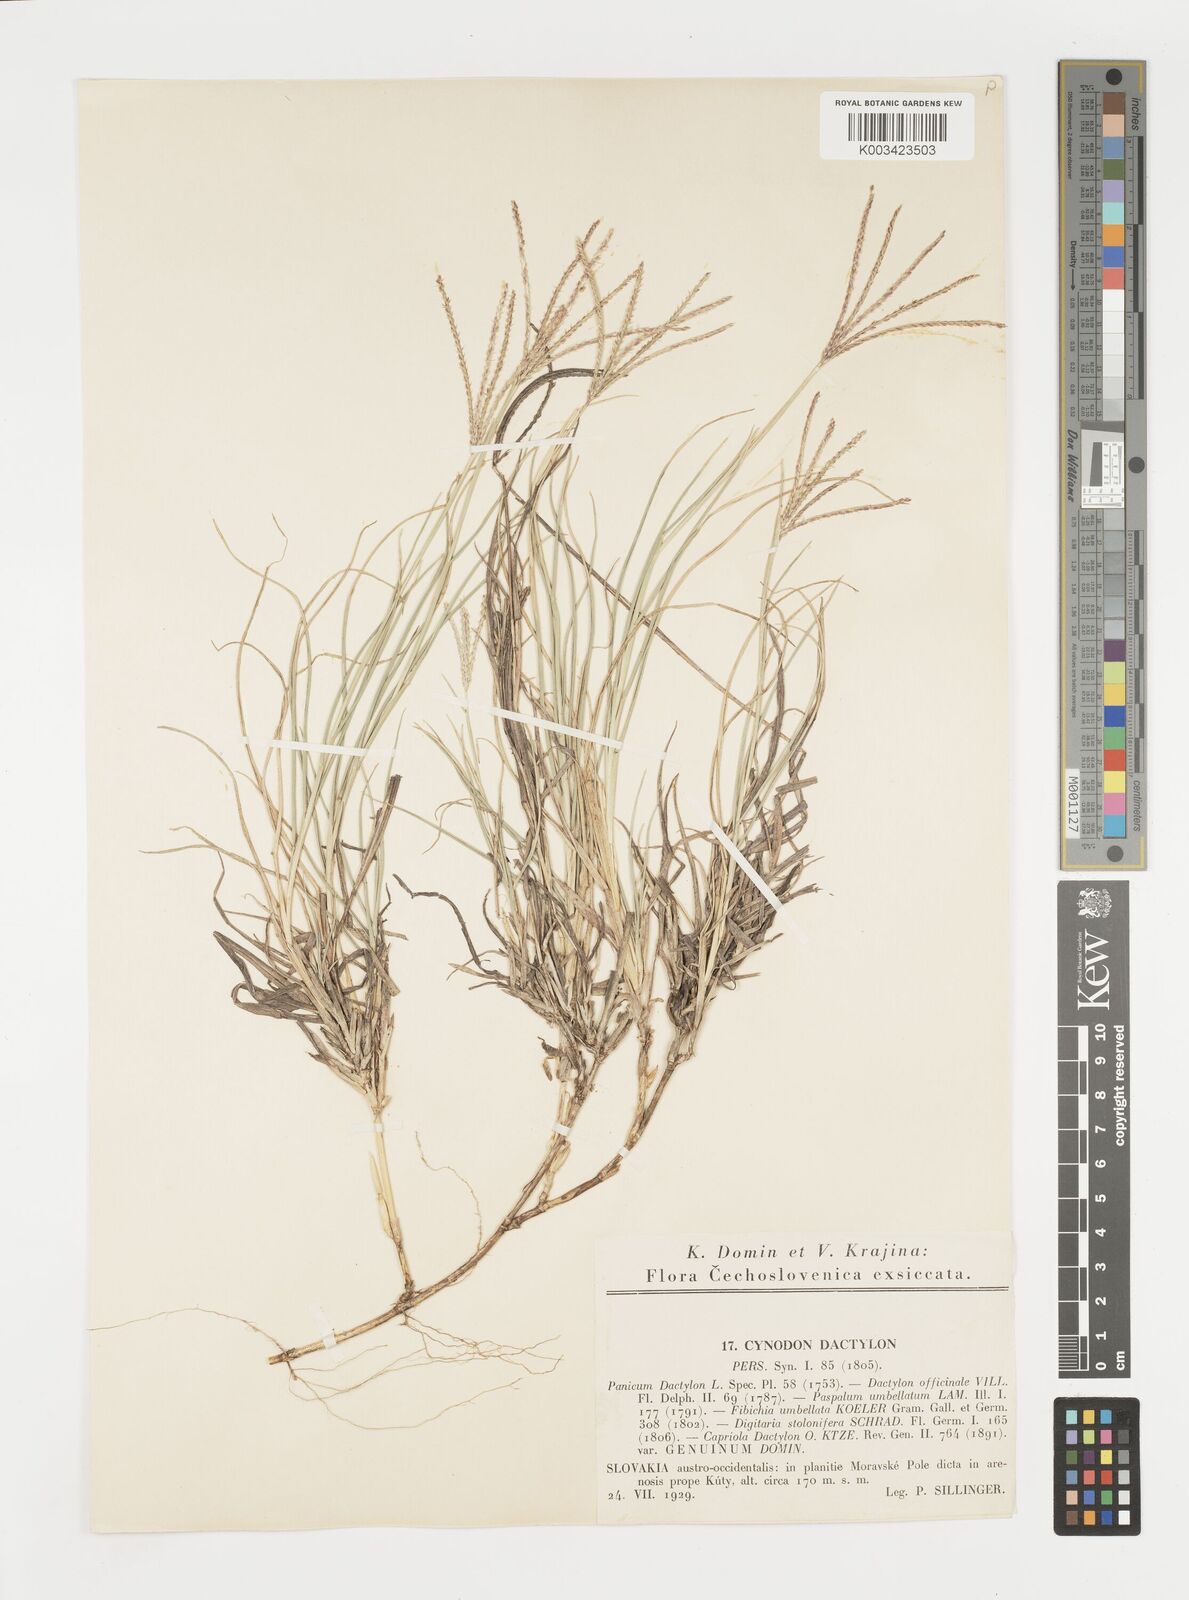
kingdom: Plantae
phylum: Tracheophyta
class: Liliopsida
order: Poales
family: Poaceae
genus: Cynodon
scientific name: Cynodon dactylon
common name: Bermuda grass
